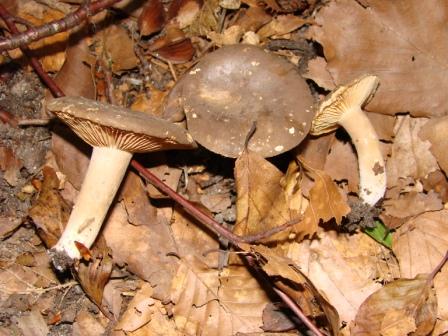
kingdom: Fungi
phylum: Basidiomycota
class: Agaricomycetes
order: Russulales
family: Russulaceae
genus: Lactarius
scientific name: Lactarius romagnesii
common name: fjernbladet mælkehat
